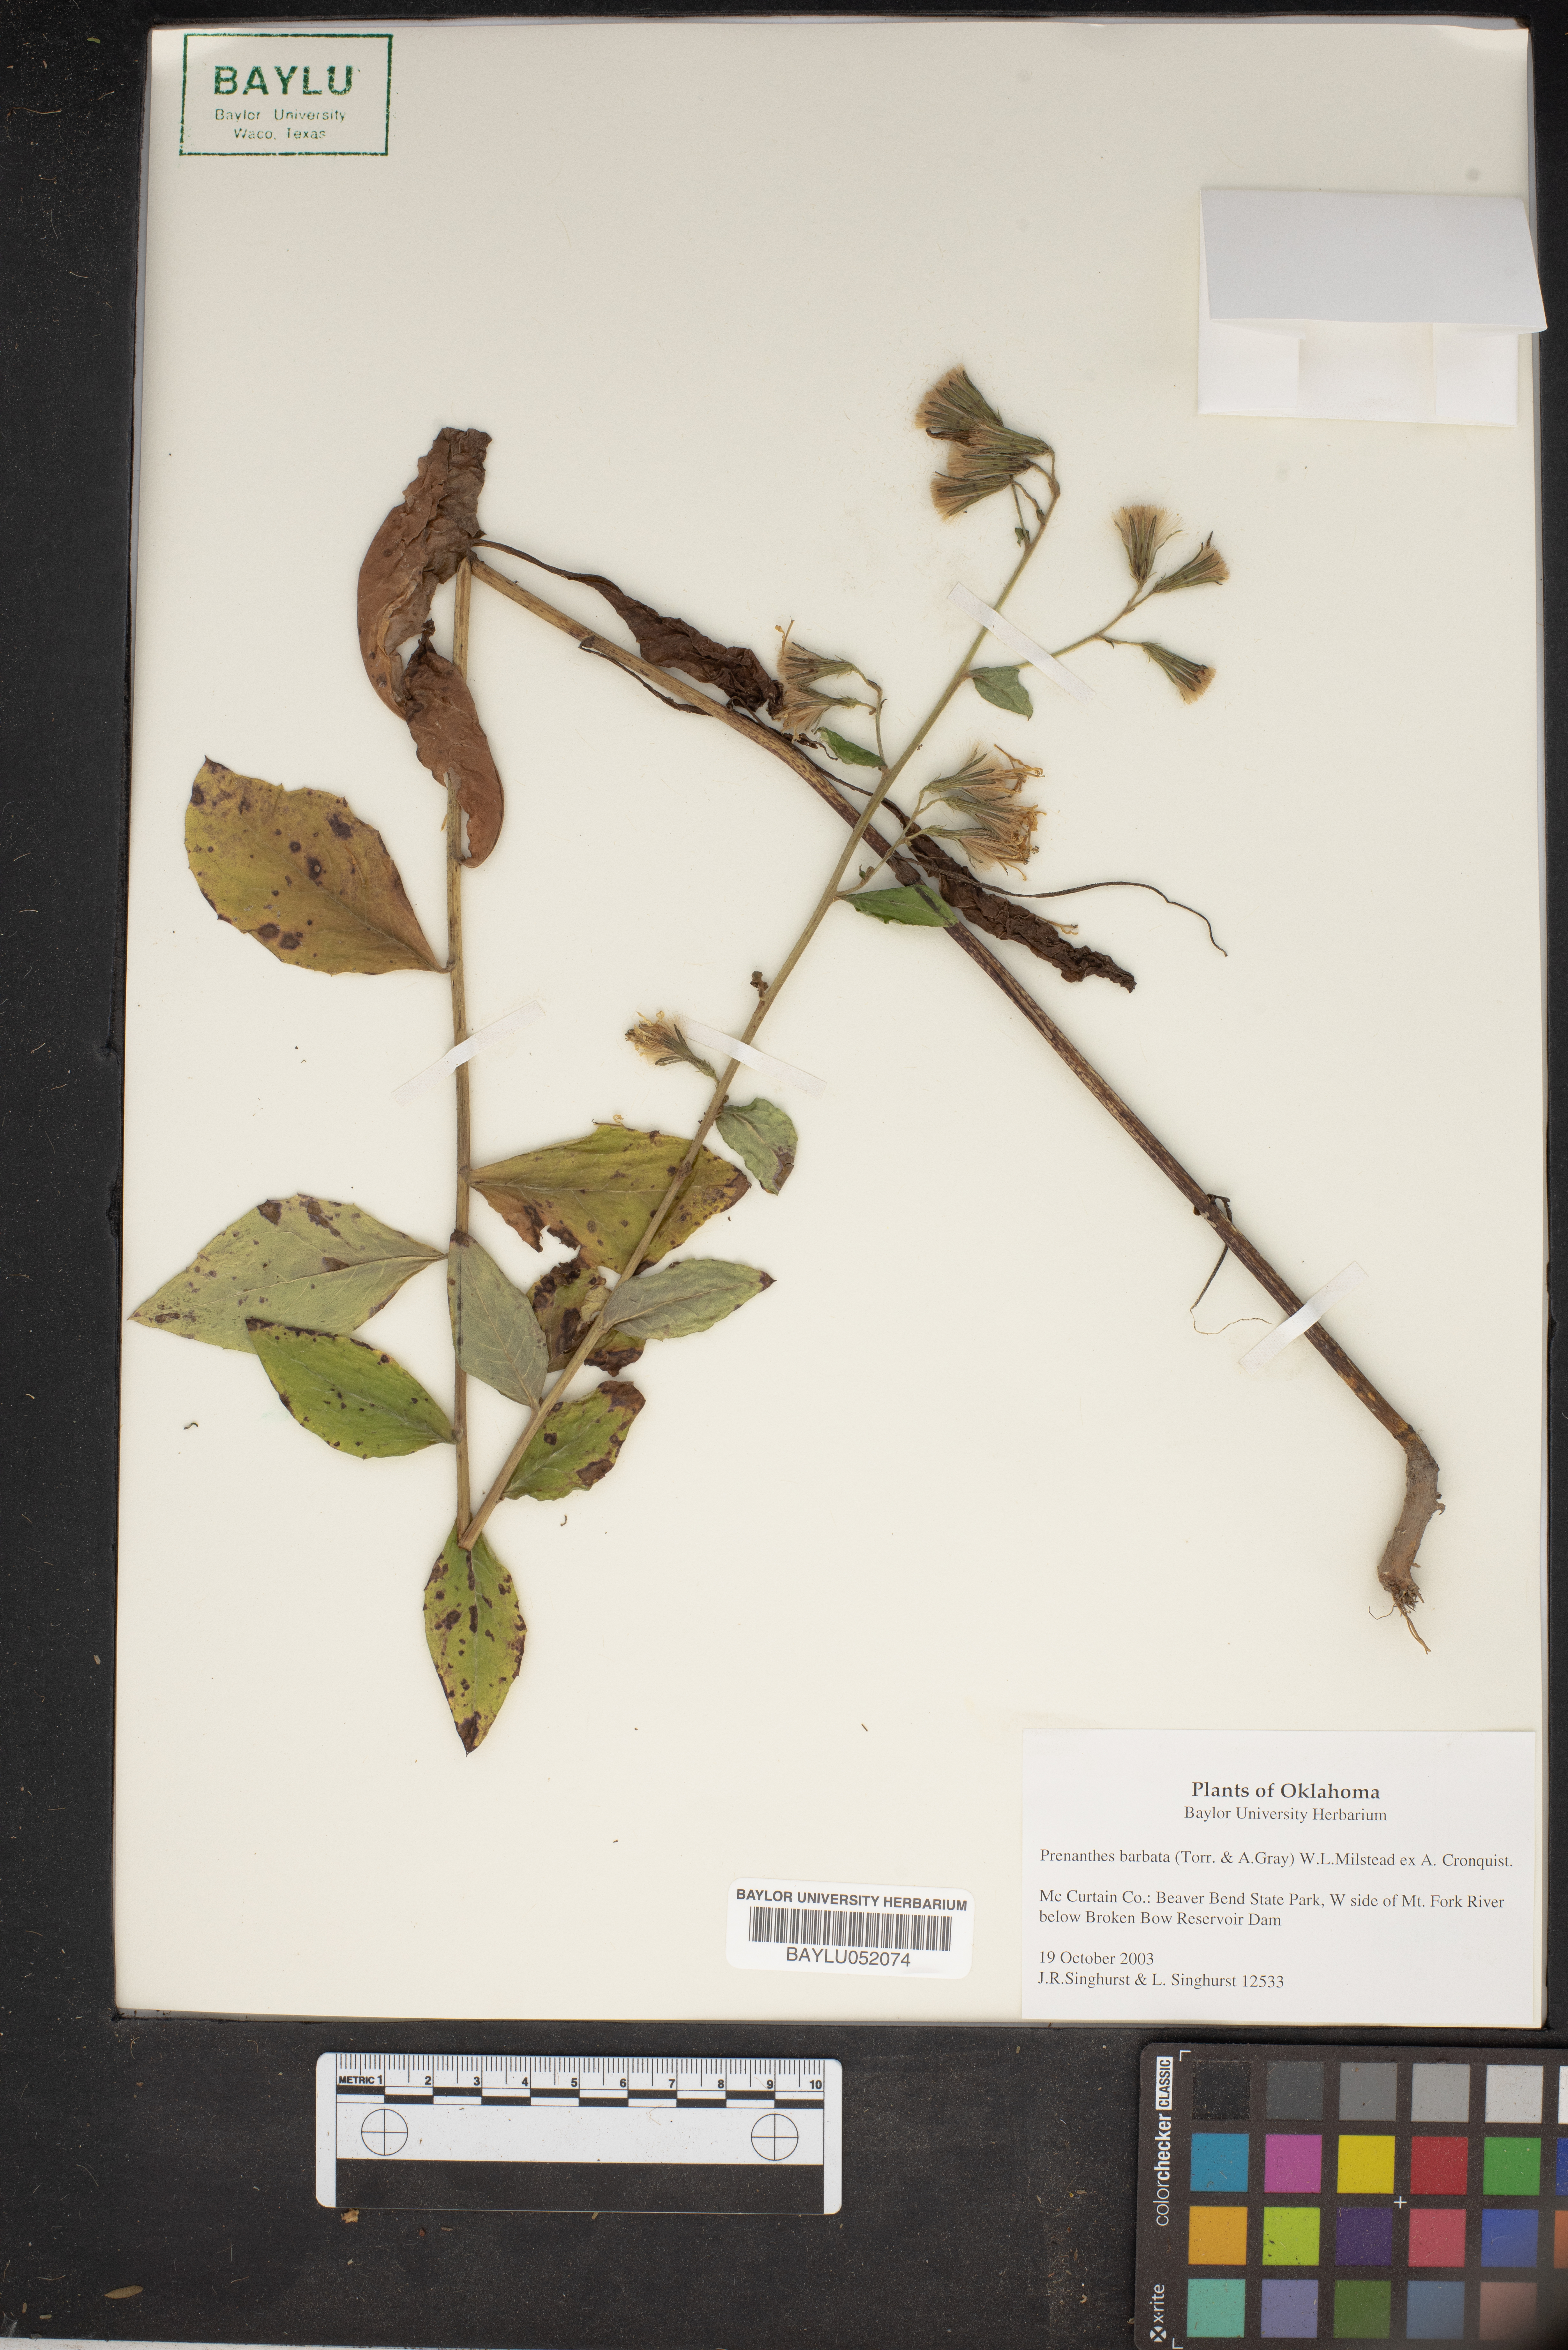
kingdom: Plantae
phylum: Tracheophyta
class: Magnoliopsida
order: Asterales
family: Asteraceae
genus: Nabalus
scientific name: Nabalus barbata
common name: Barbed rattlesnakeroot
